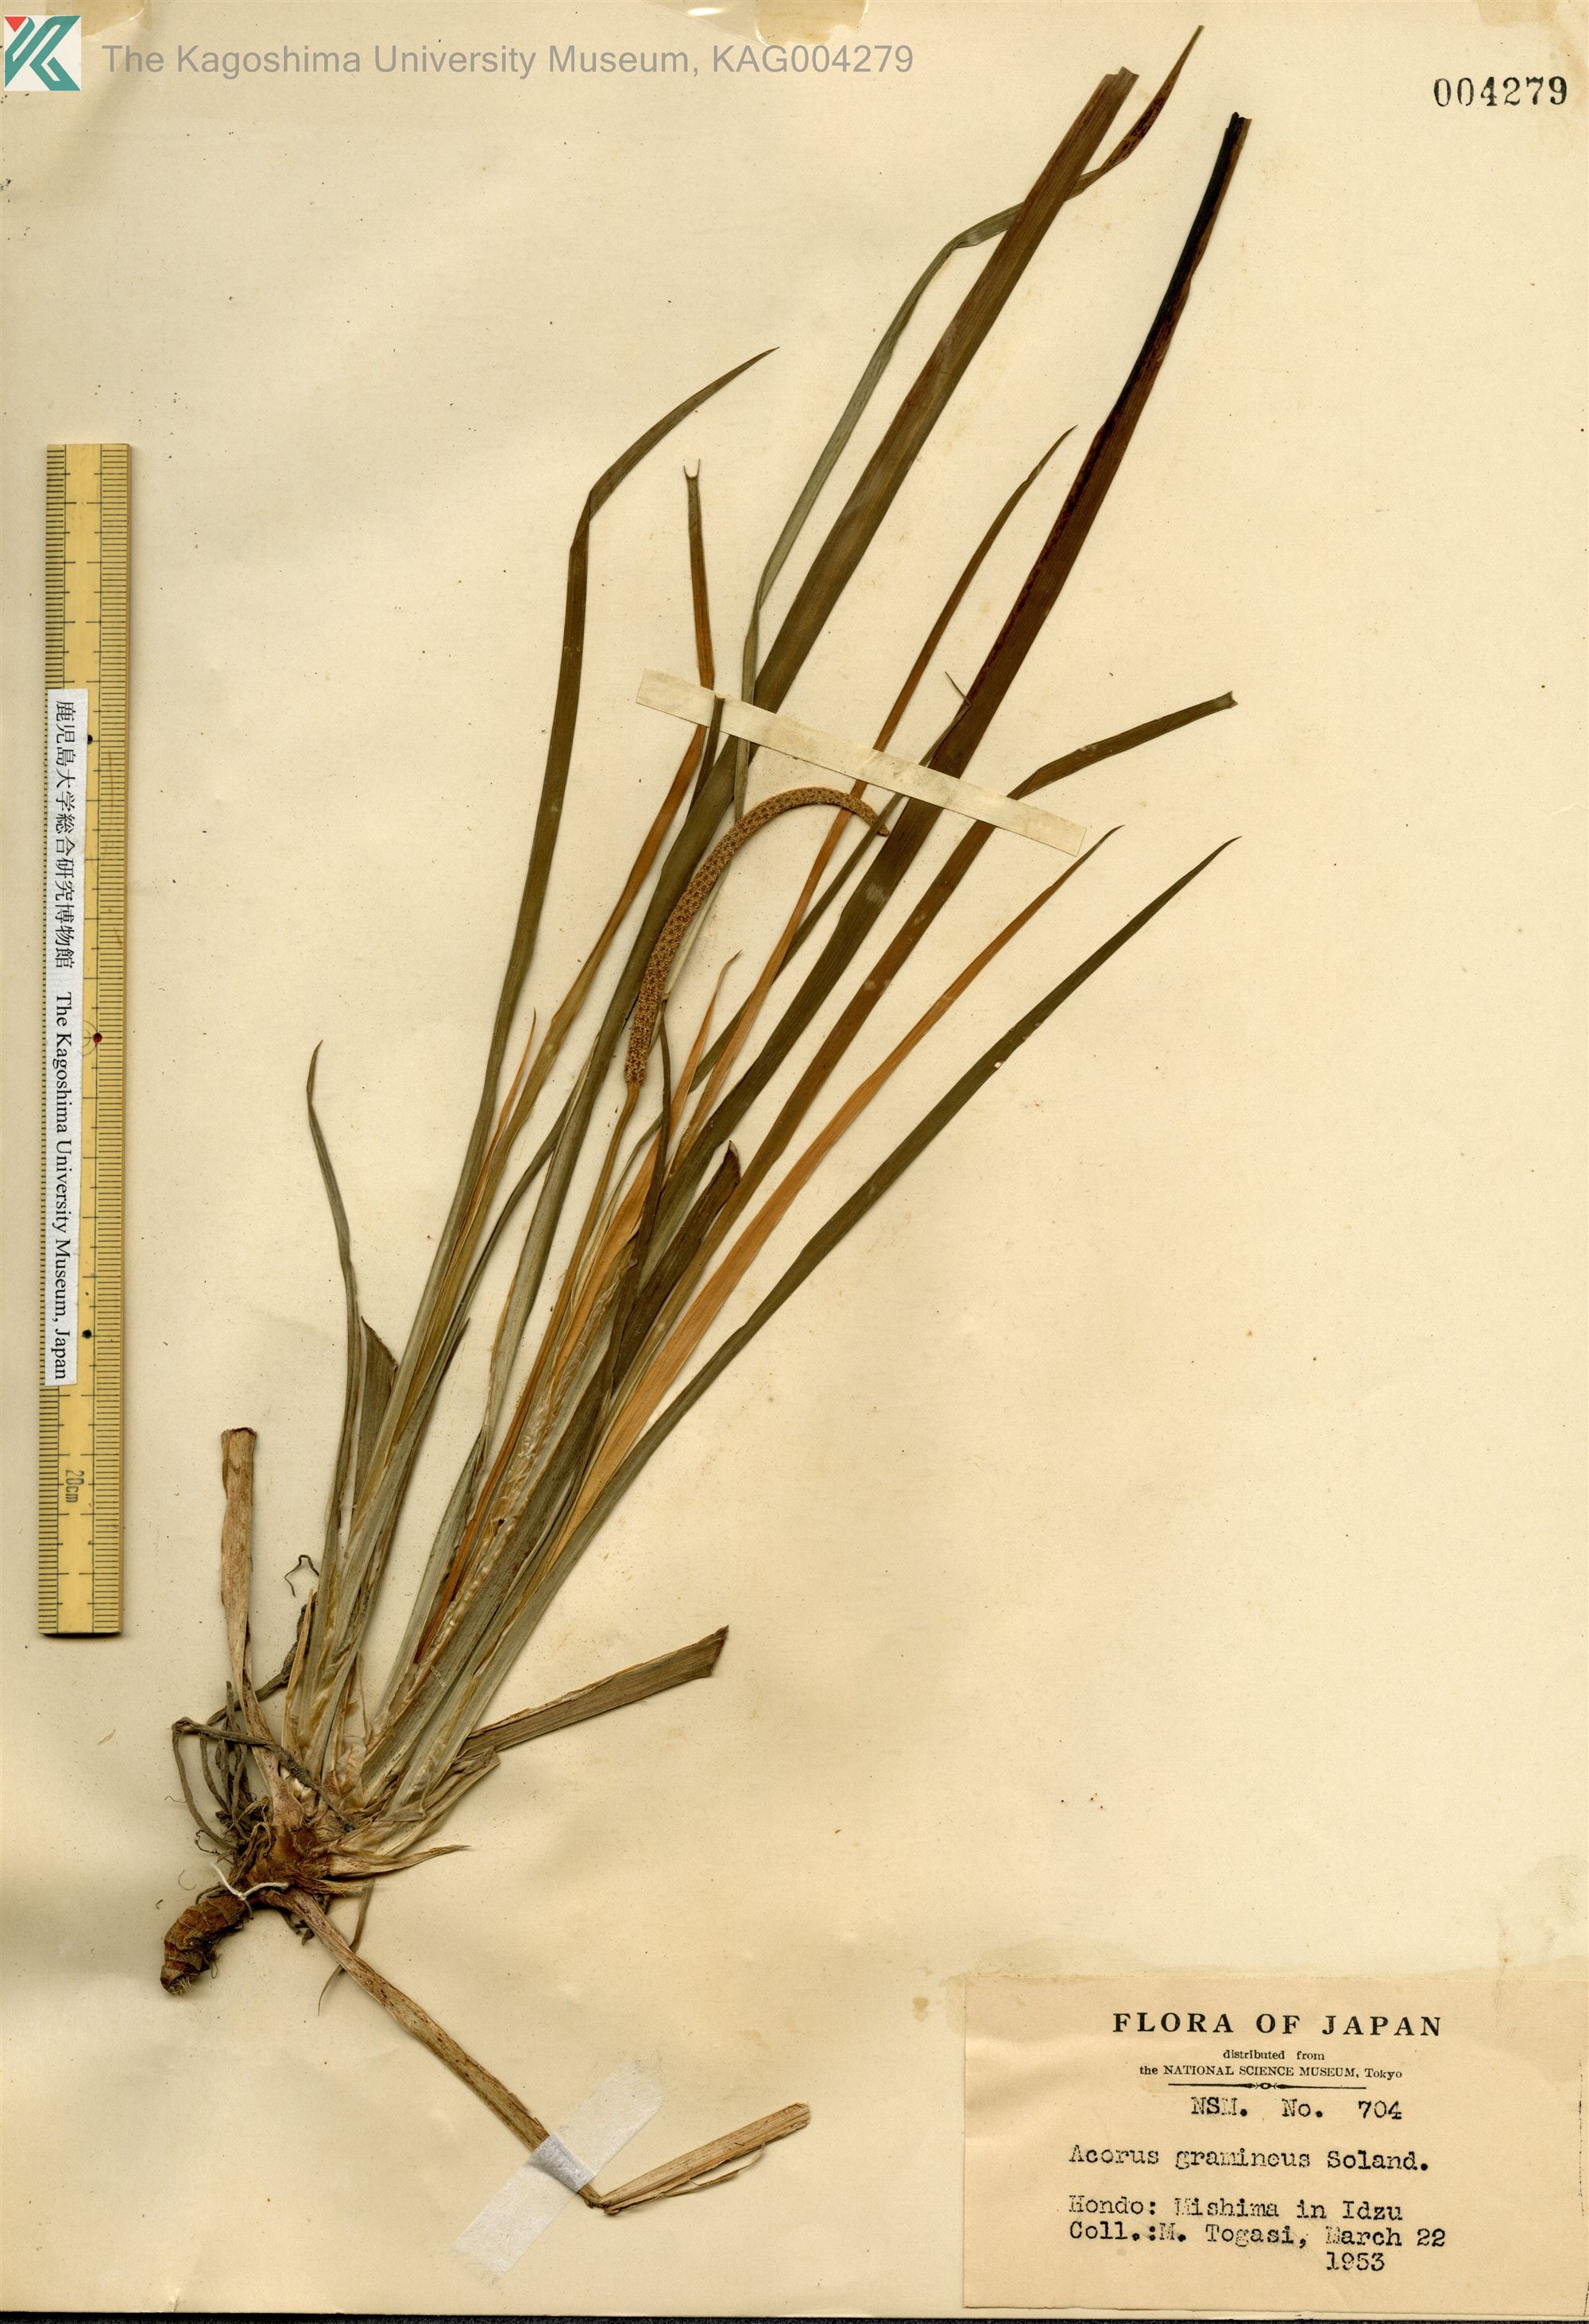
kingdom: Plantae
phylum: Tracheophyta
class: Liliopsida
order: Acorales
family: Acoraceae
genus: Acorus
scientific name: Acorus gramineus
